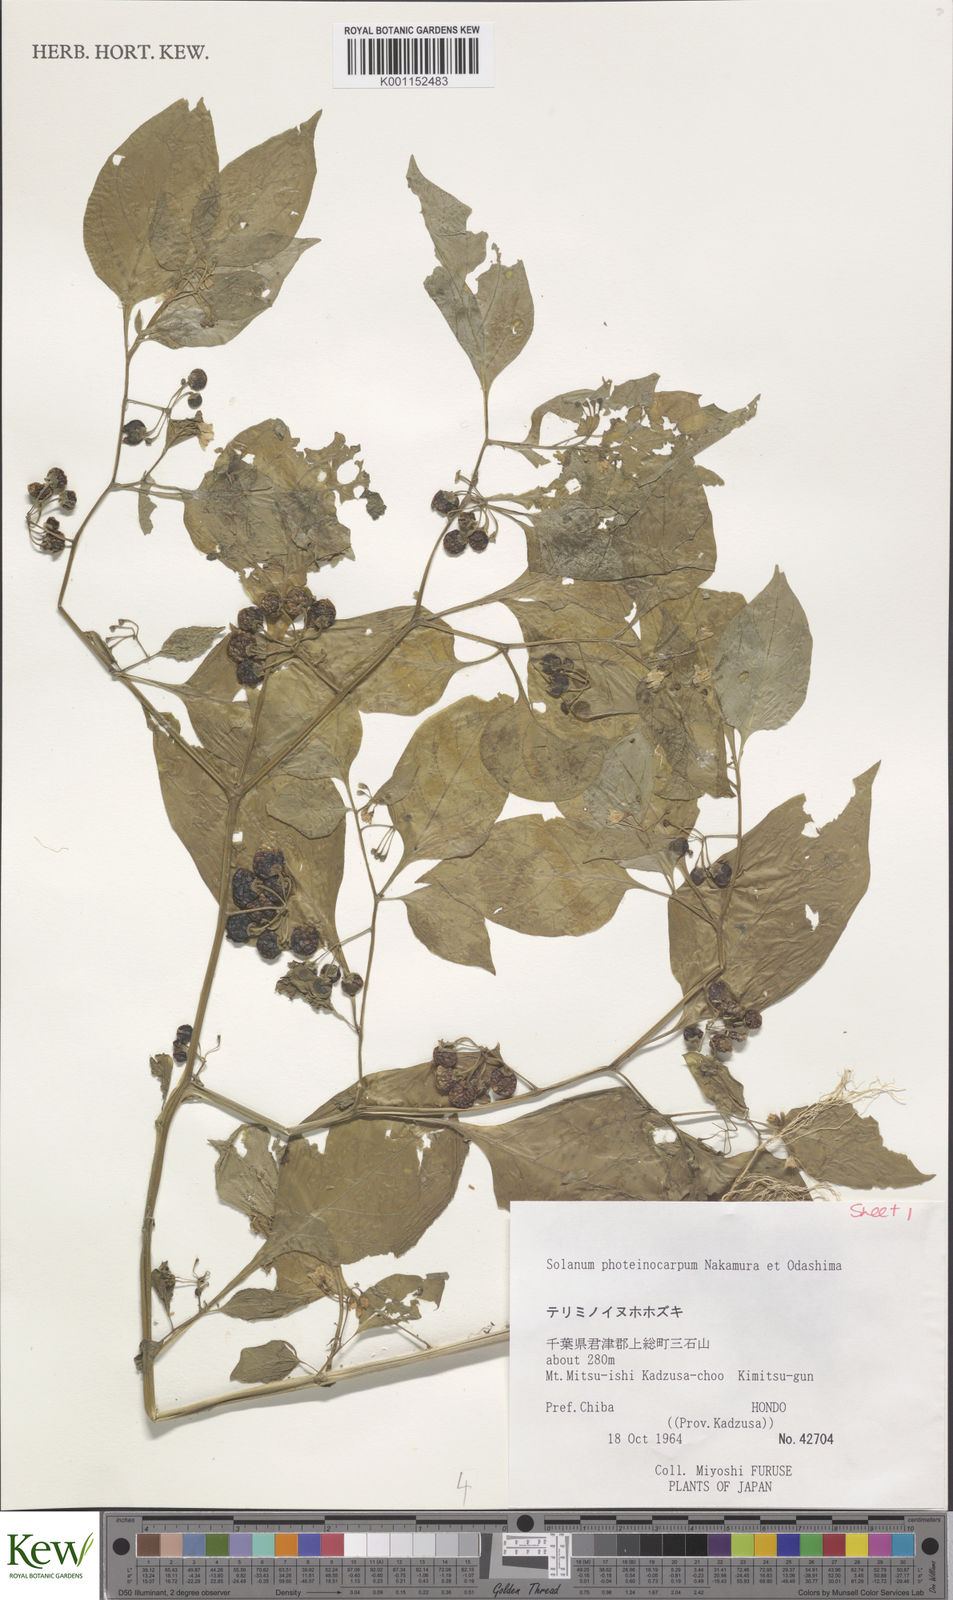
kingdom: Plantae
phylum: Tracheophyta
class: Magnoliopsida
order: Solanales
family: Solanaceae
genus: Solanum
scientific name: Solanum americanum
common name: American black nightshade
